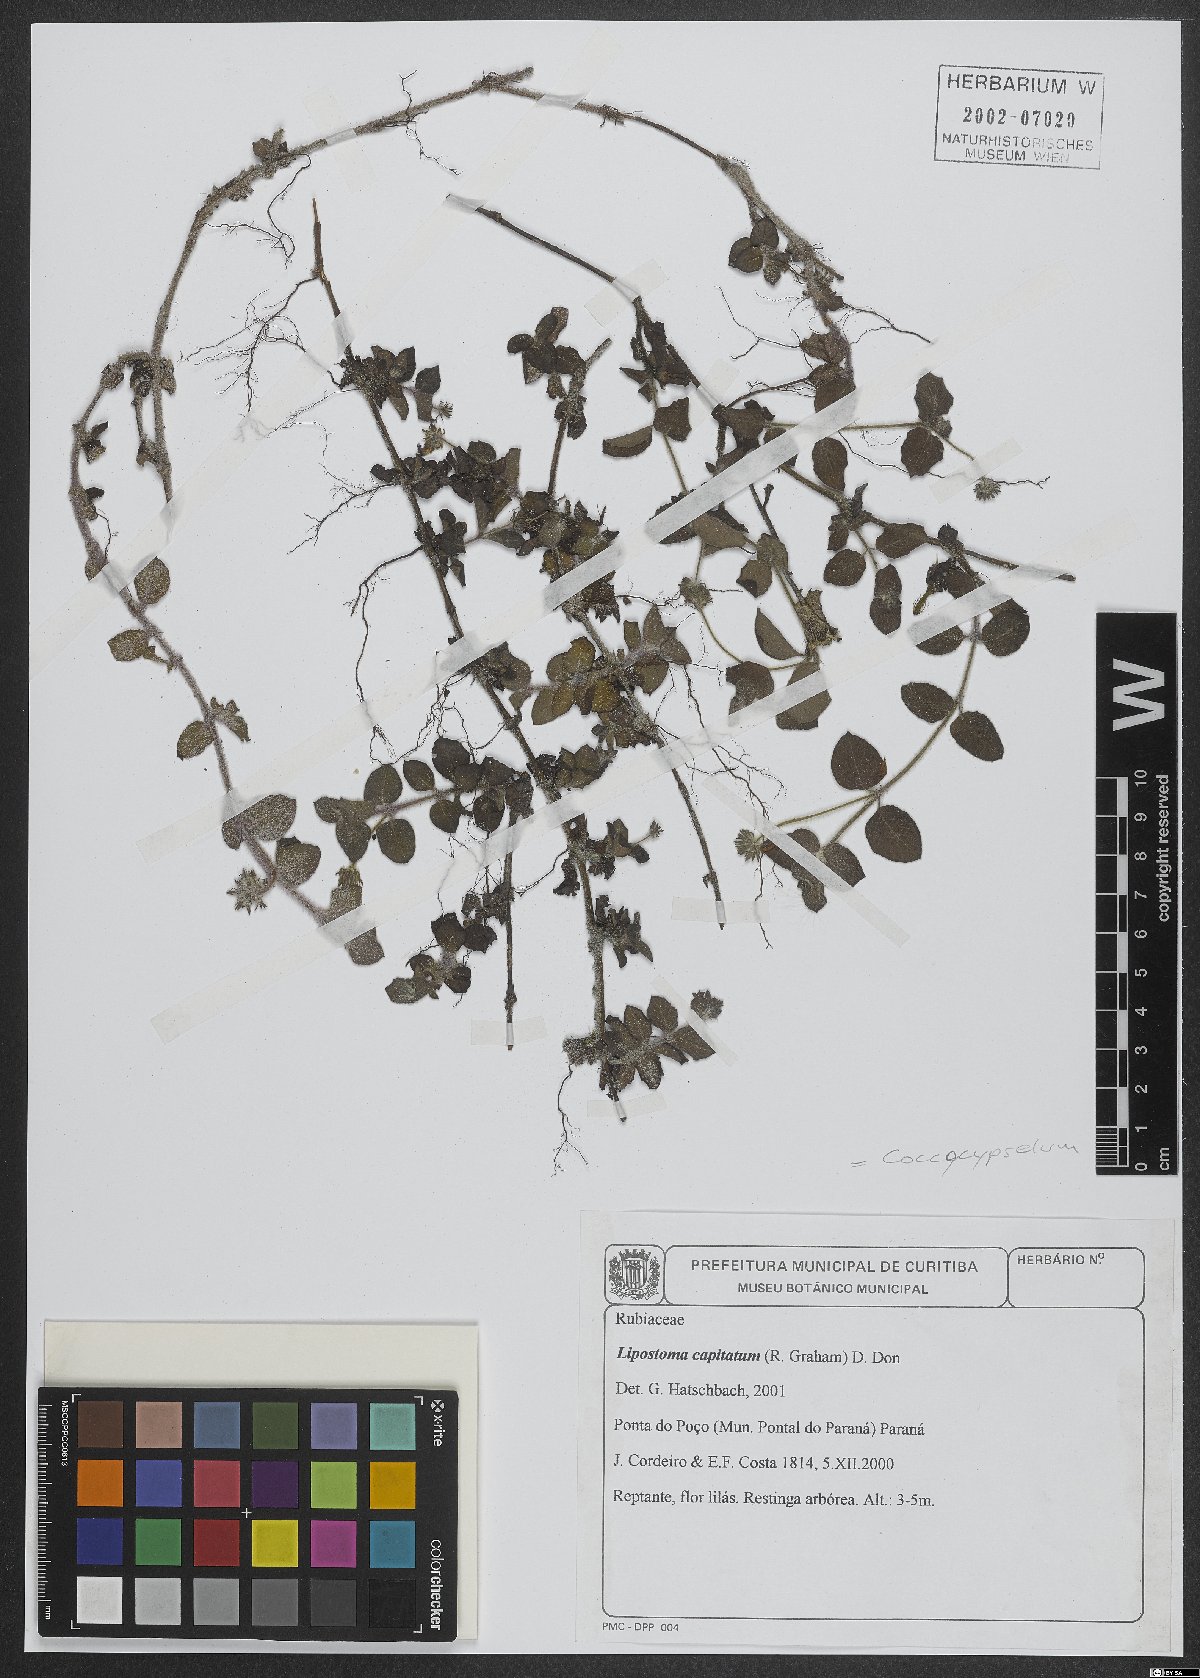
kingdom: Plantae
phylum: Tracheophyta
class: Magnoliopsida
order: Gentianales
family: Rubiaceae
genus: Coccocypselum
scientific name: Coccocypselum capitatum
